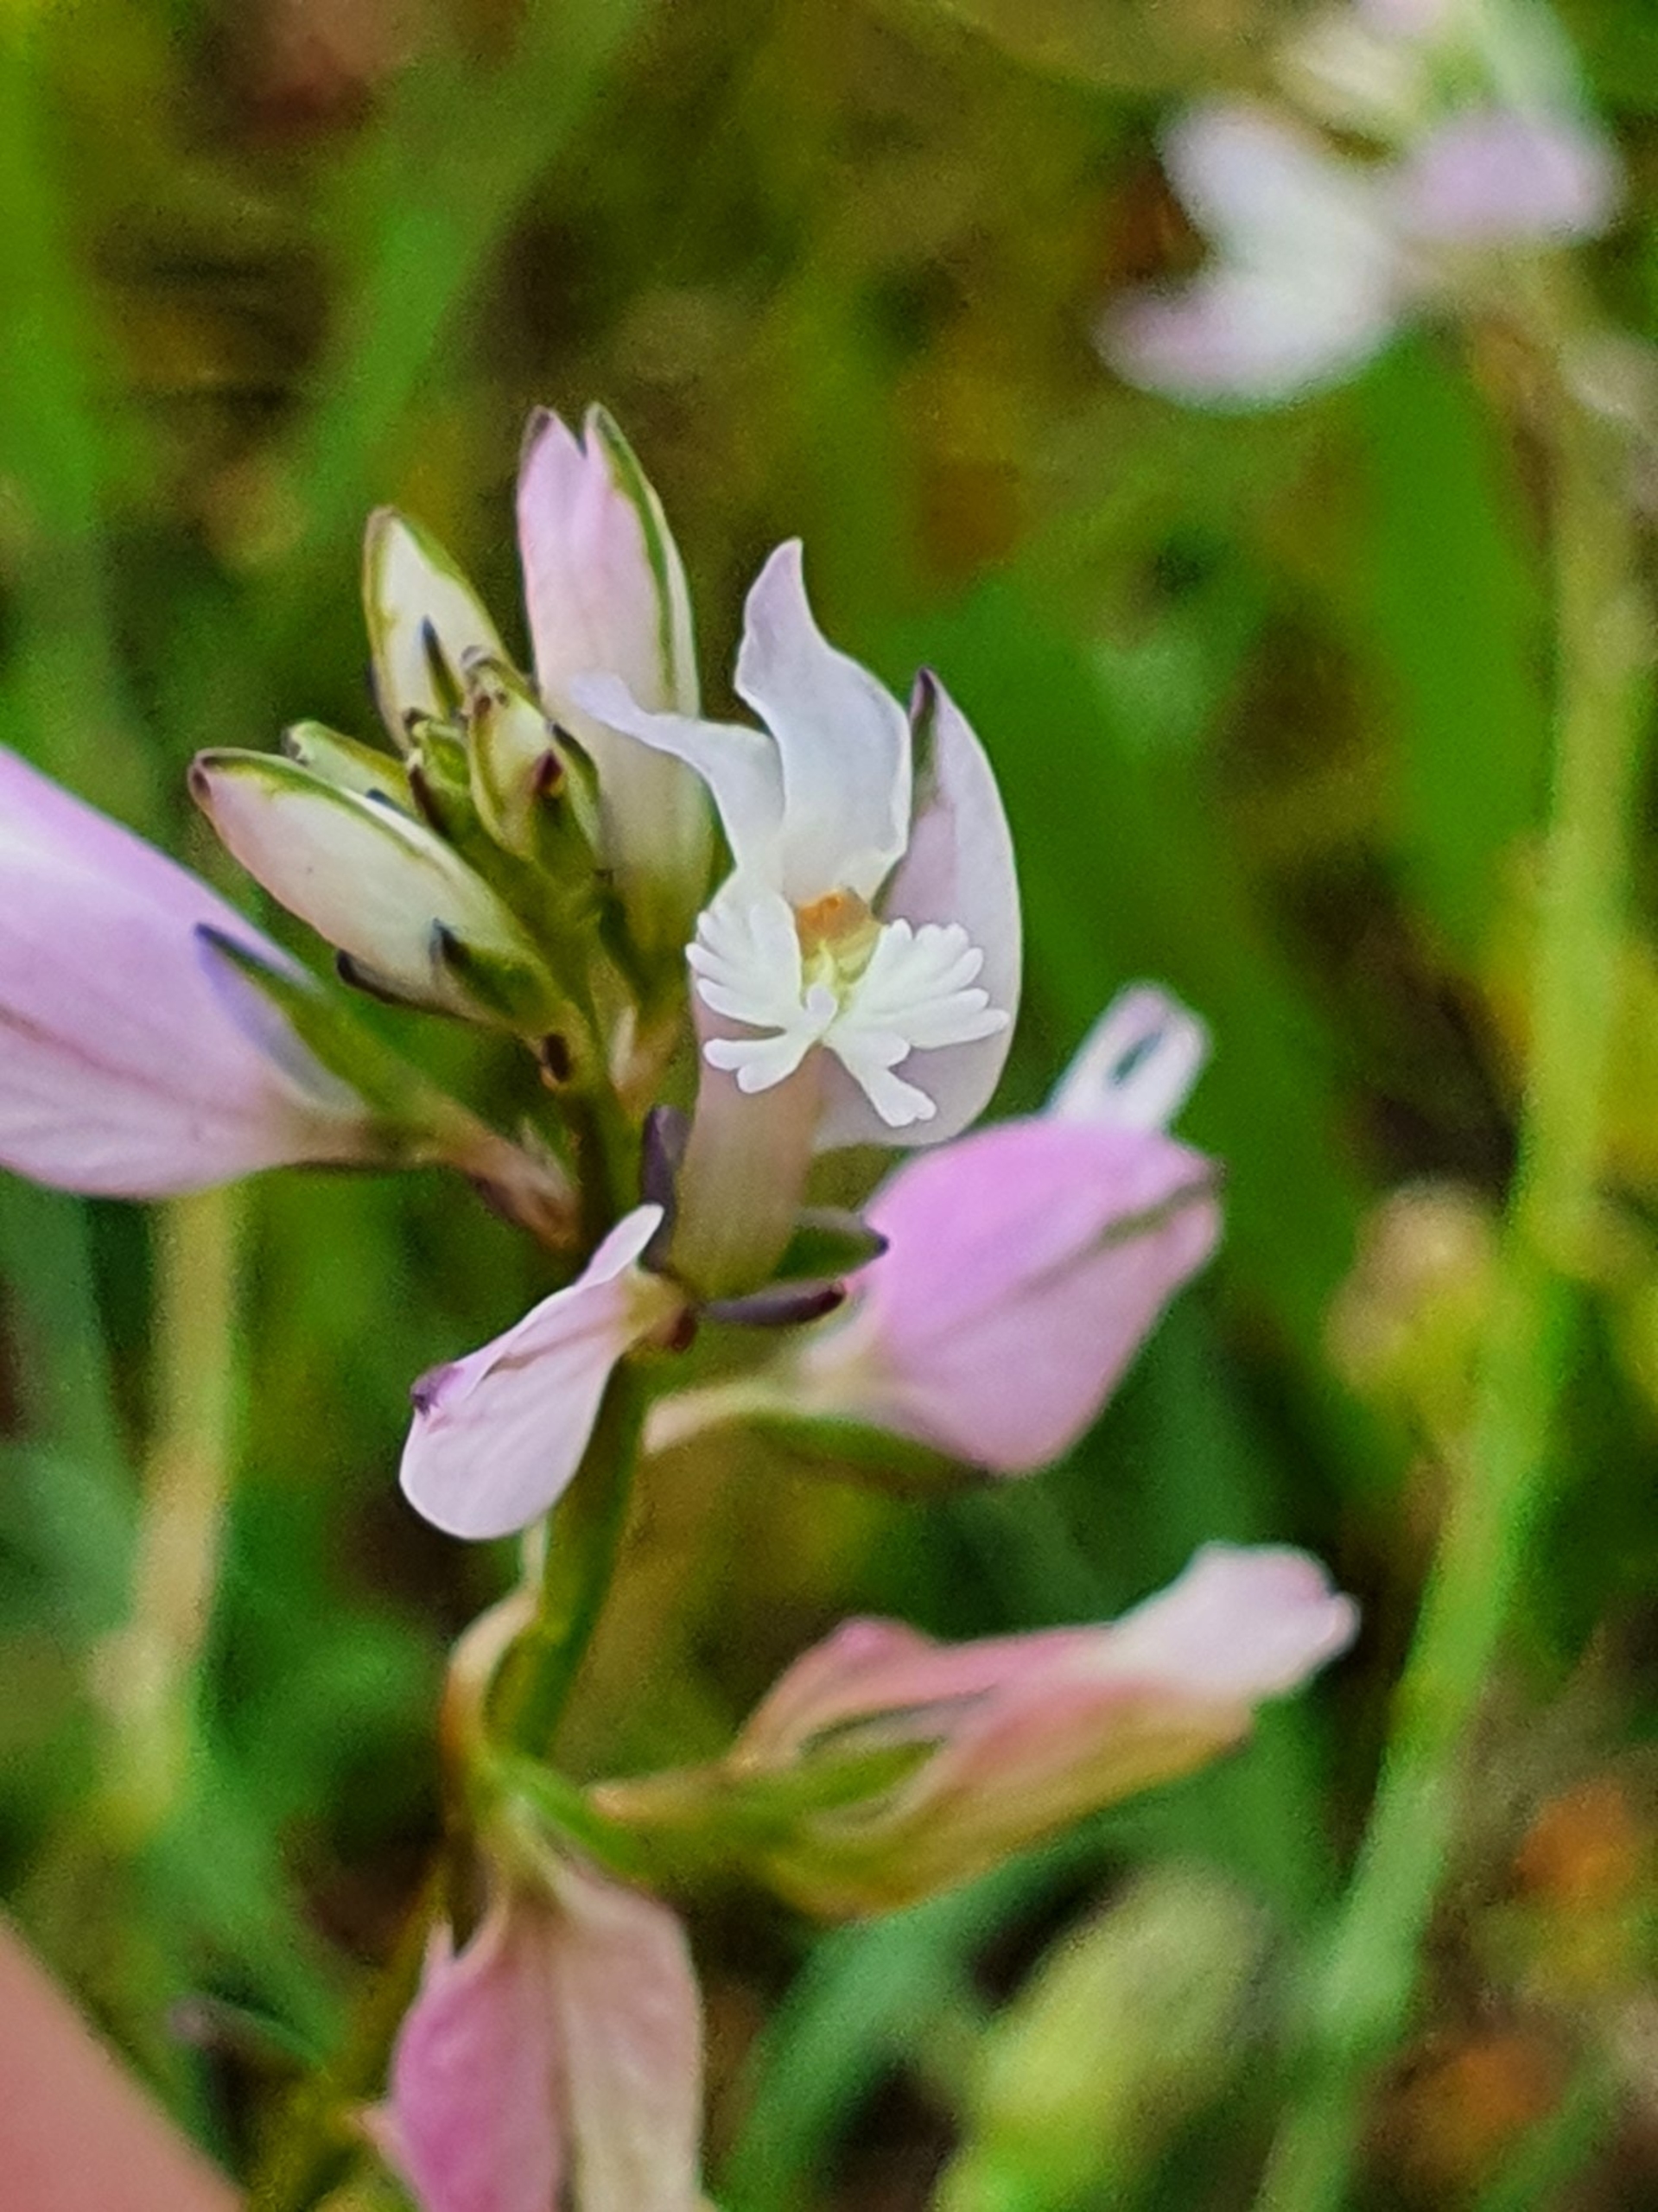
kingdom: Plantae
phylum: Tracheophyta
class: Magnoliopsida
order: Fabales
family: Polygalaceae
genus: Polygala
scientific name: Polygala vulgaris
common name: Almindelig mælkeurt
